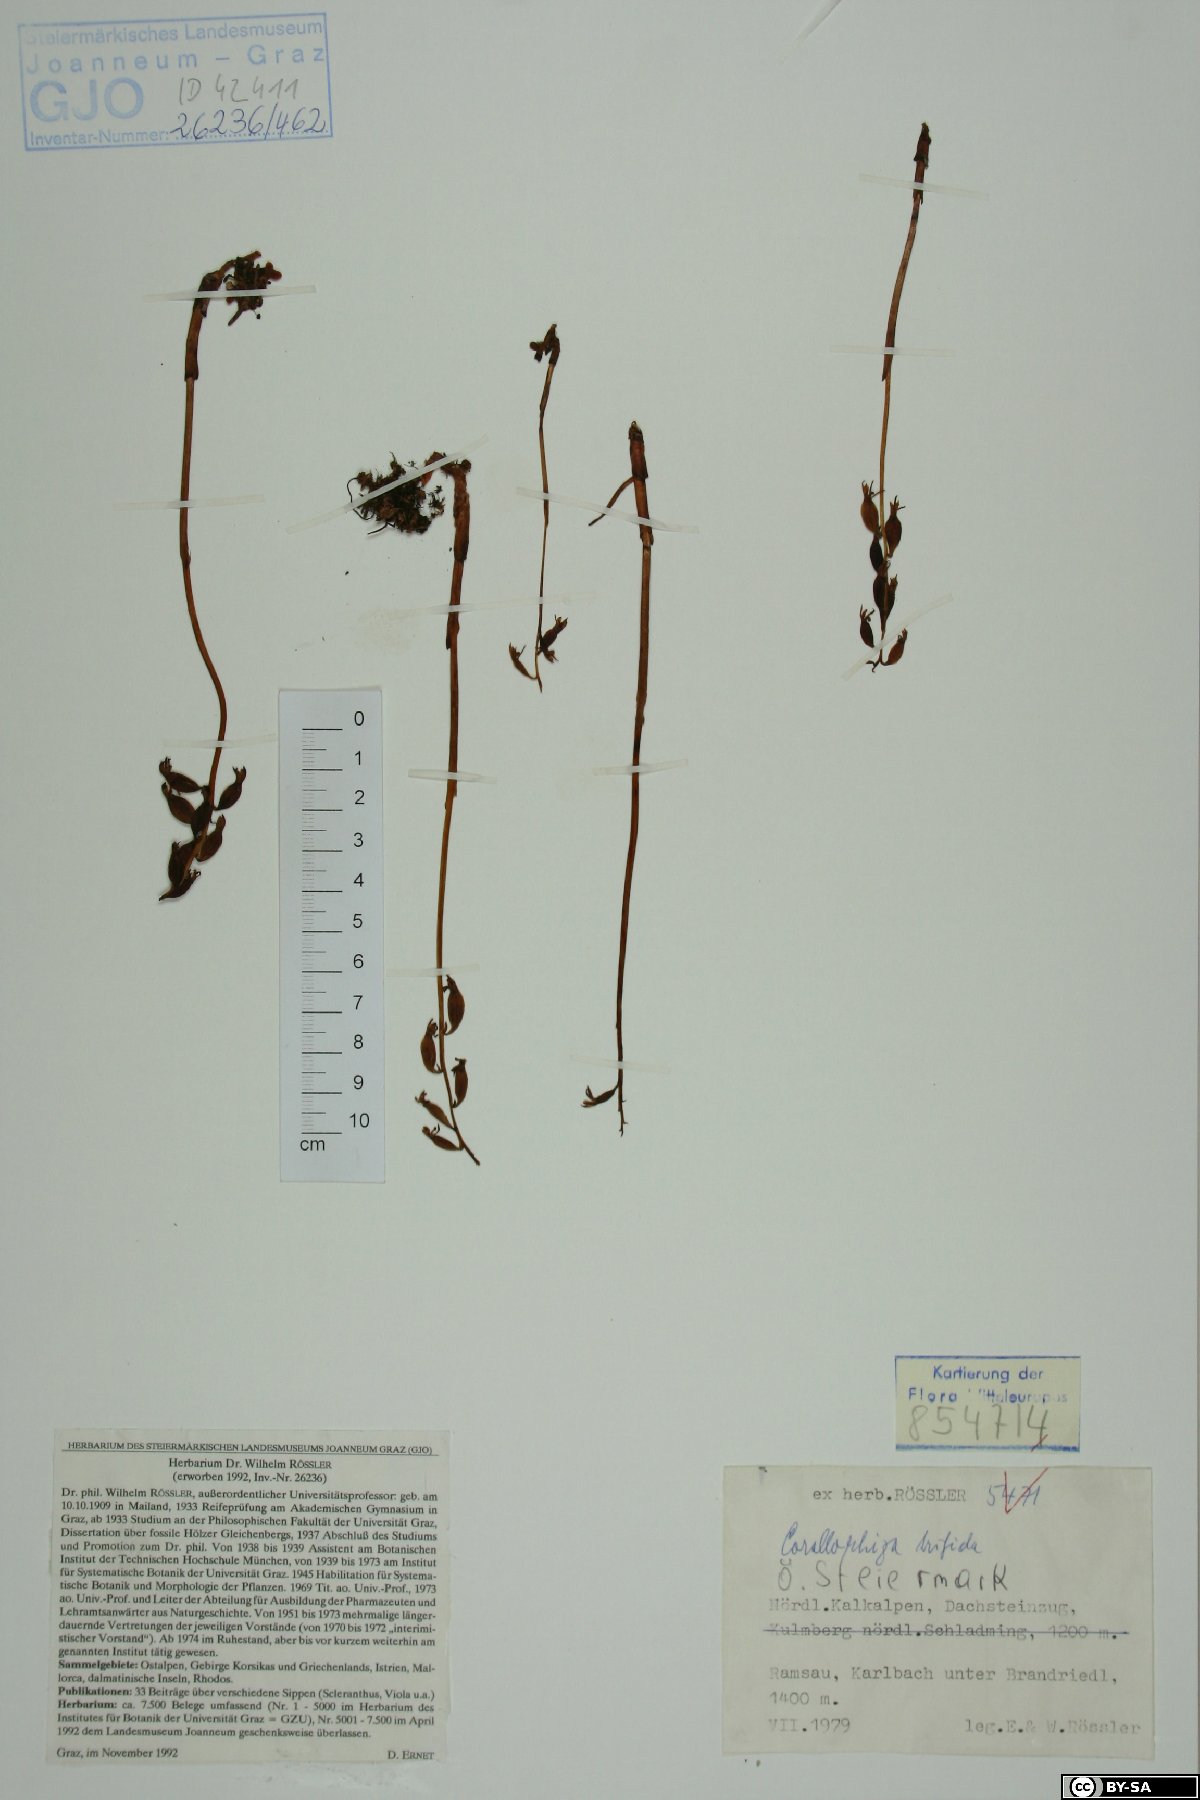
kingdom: Plantae
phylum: Tracheophyta
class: Liliopsida
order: Asparagales
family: Orchidaceae
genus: Corallorhiza
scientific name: Corallorhiza trifida
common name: Yellow coralroot
